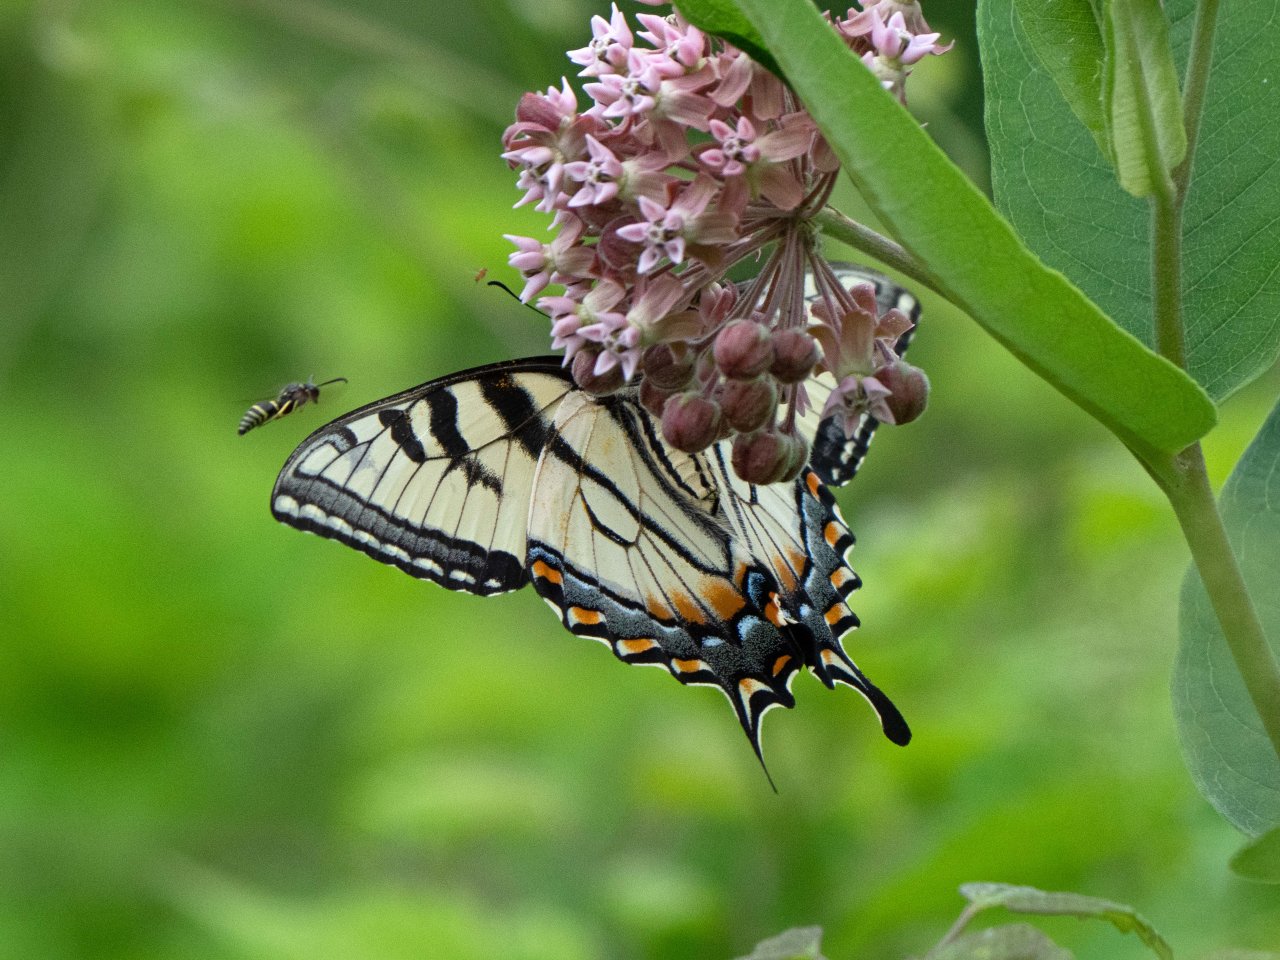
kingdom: Animalia
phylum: Arthropoda
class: Insecta
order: Lepidoptera
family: Papilionidae
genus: Pterourus
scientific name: Pterourus canadensis
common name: Canadian Tiger Swallowtail
